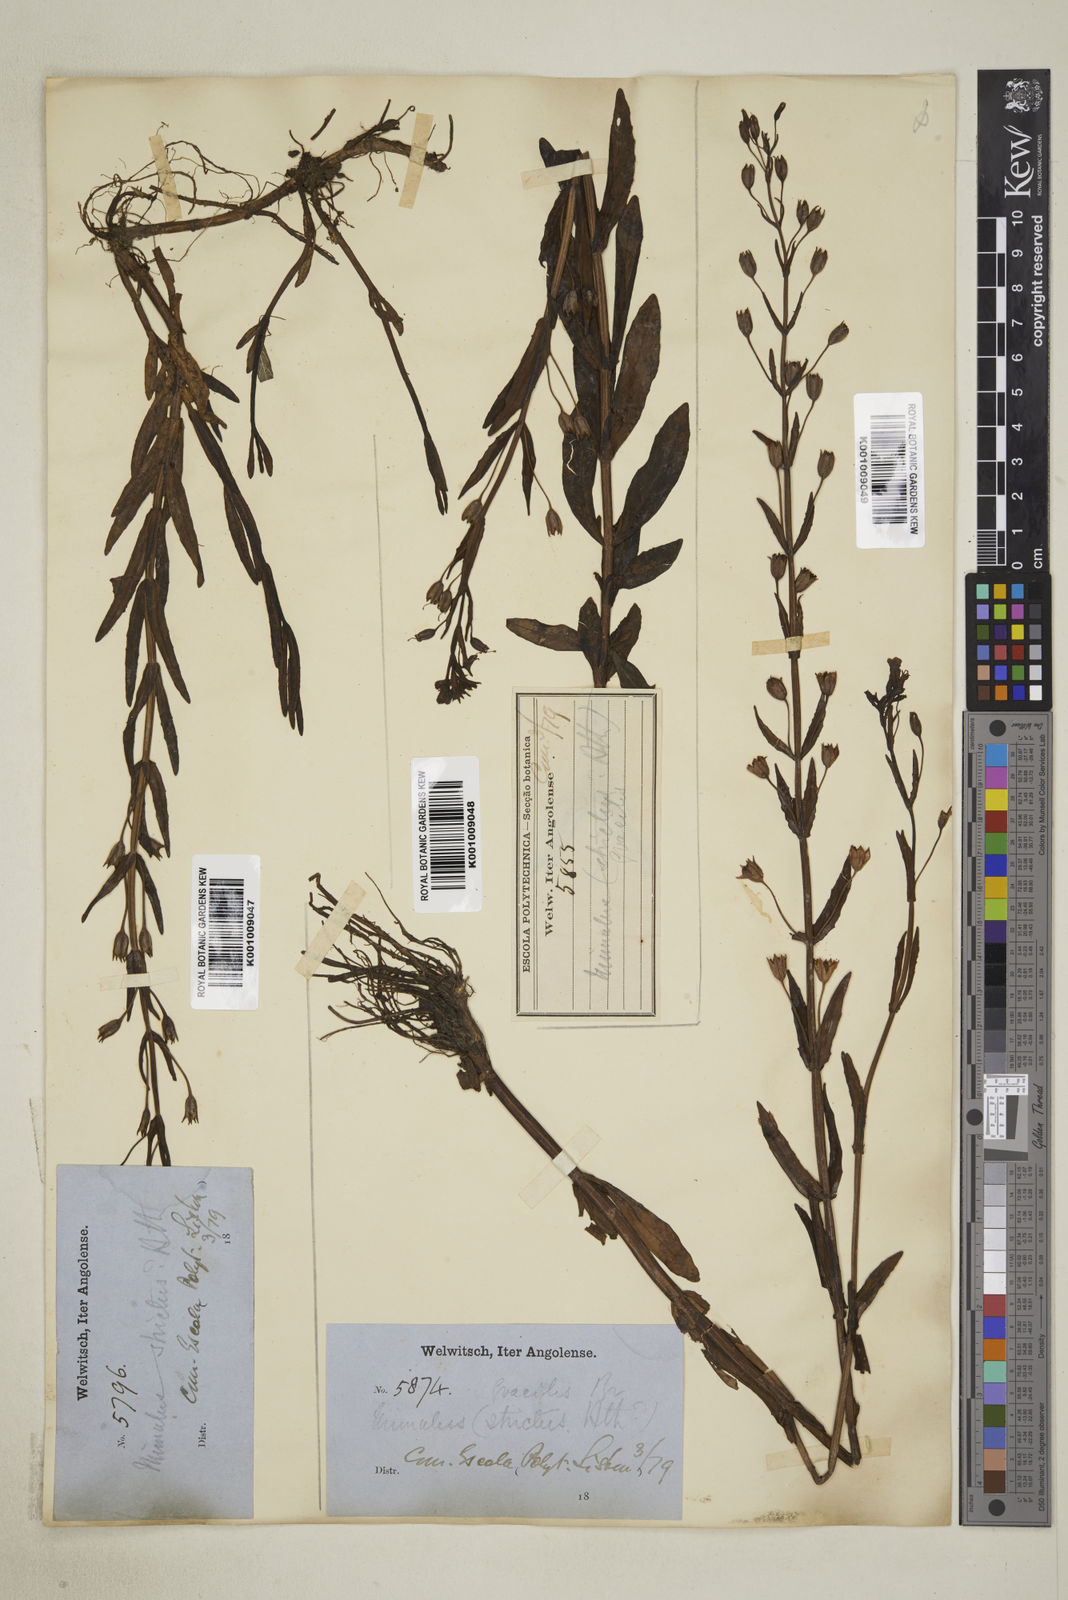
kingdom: Plantae
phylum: Tracheophyta
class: Magnoliopsida
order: Lamiales
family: Phrymaceae
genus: Mimulus
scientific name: Mimulus gracilis
